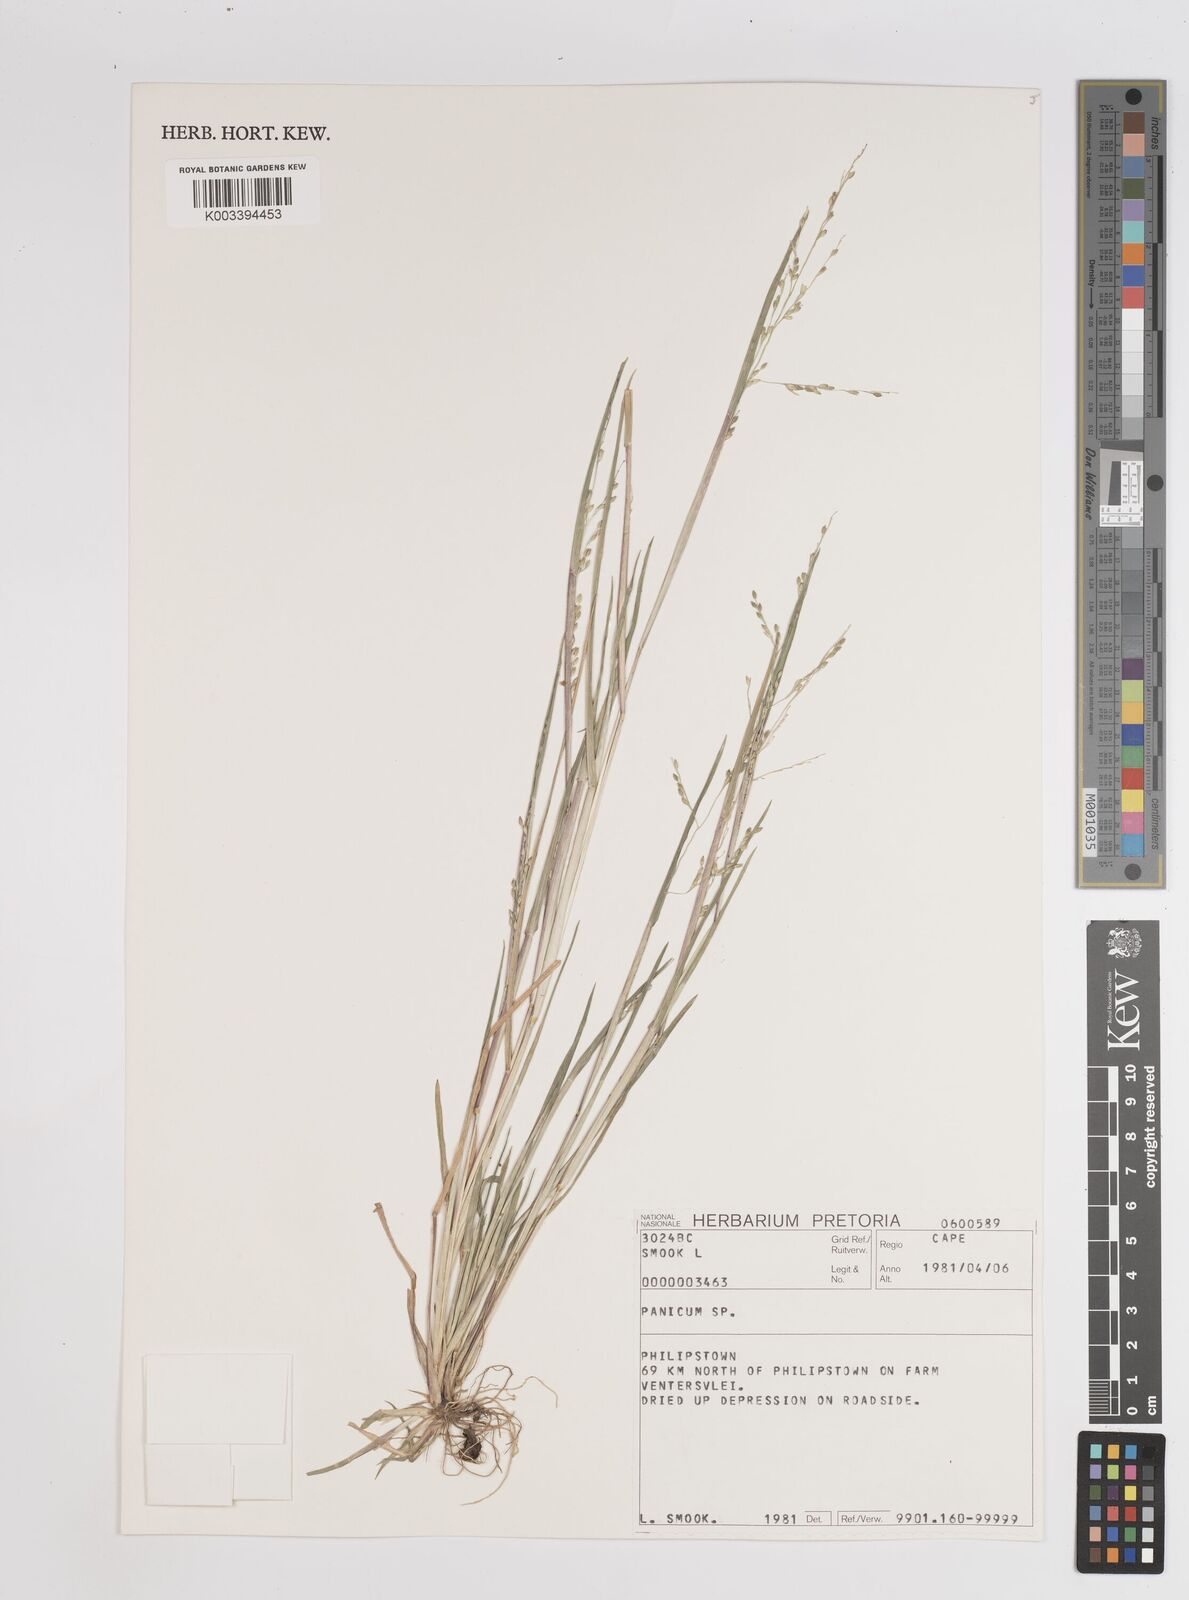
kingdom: Plantae
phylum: Tracheophyta
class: Liliopsida
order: Poales
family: Poaceae
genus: Panicum
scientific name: Panicum
